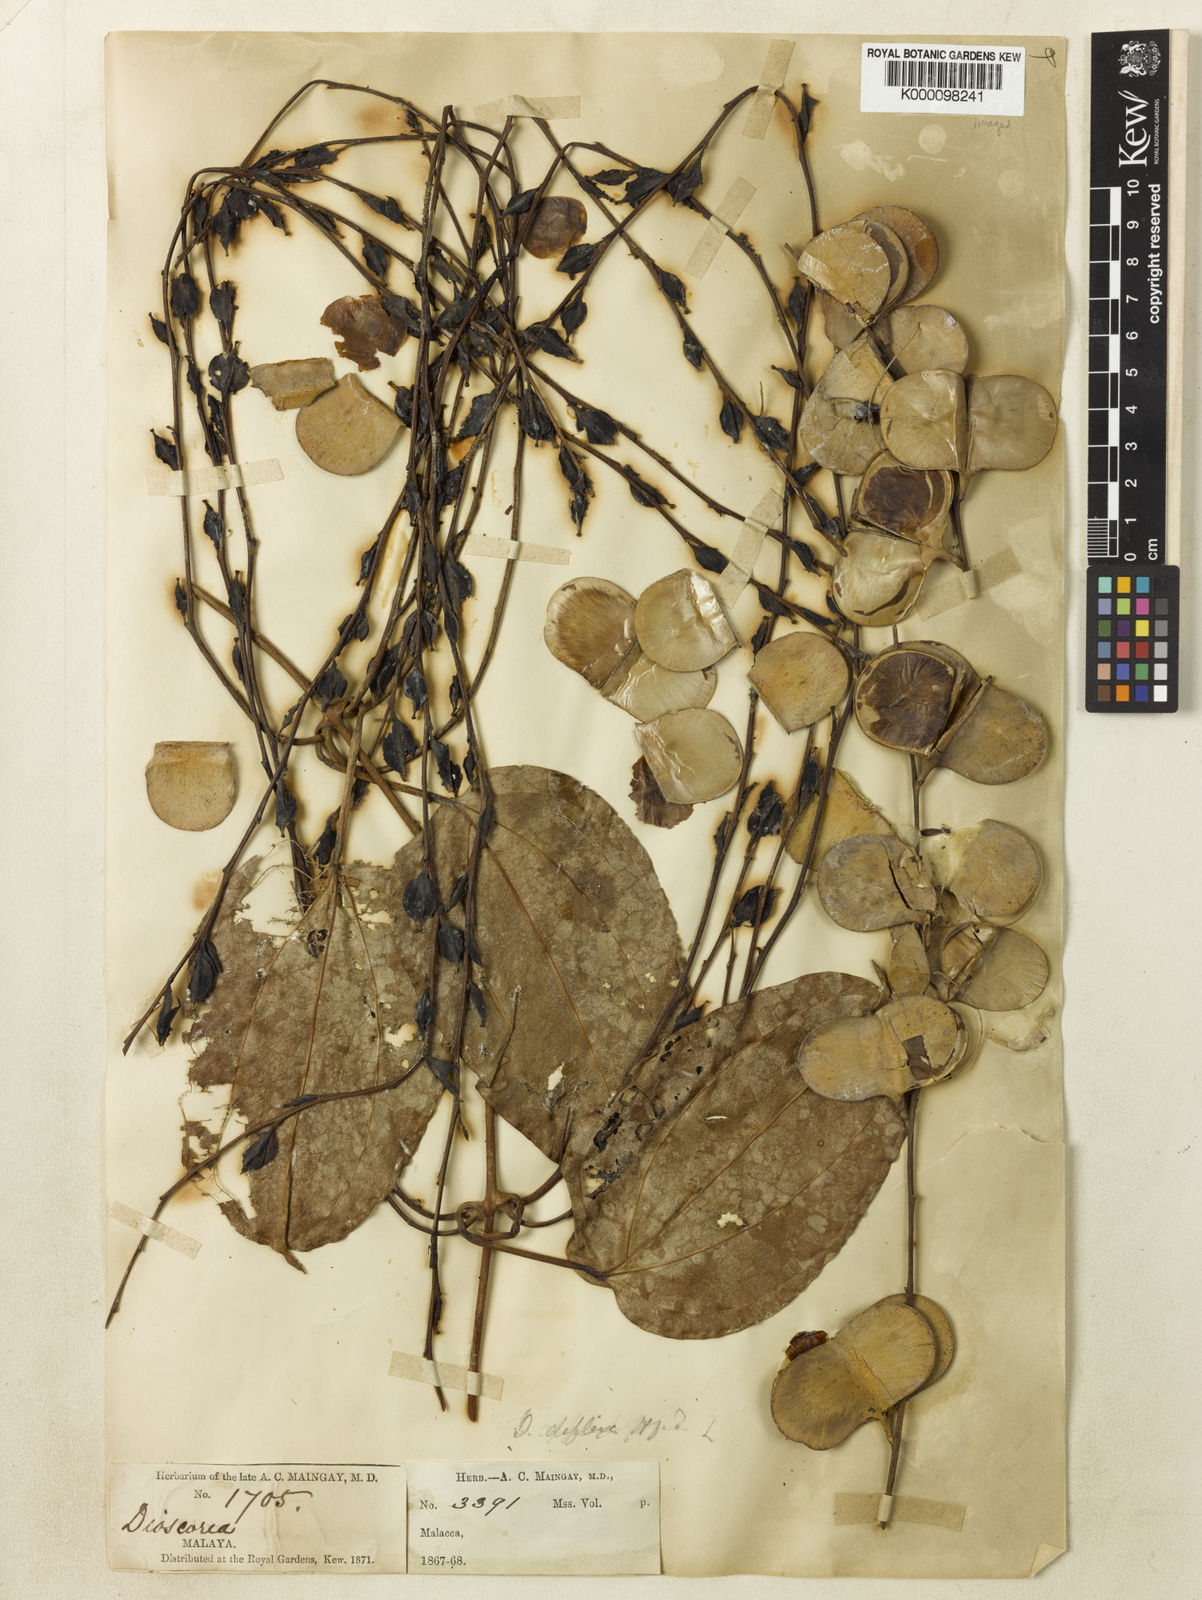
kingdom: Plantae
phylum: Tracheophyta
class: Liliopsida
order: Dioscoreales
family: Dioscoreaceae
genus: Dioscorea
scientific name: Dioscorea prainiana
